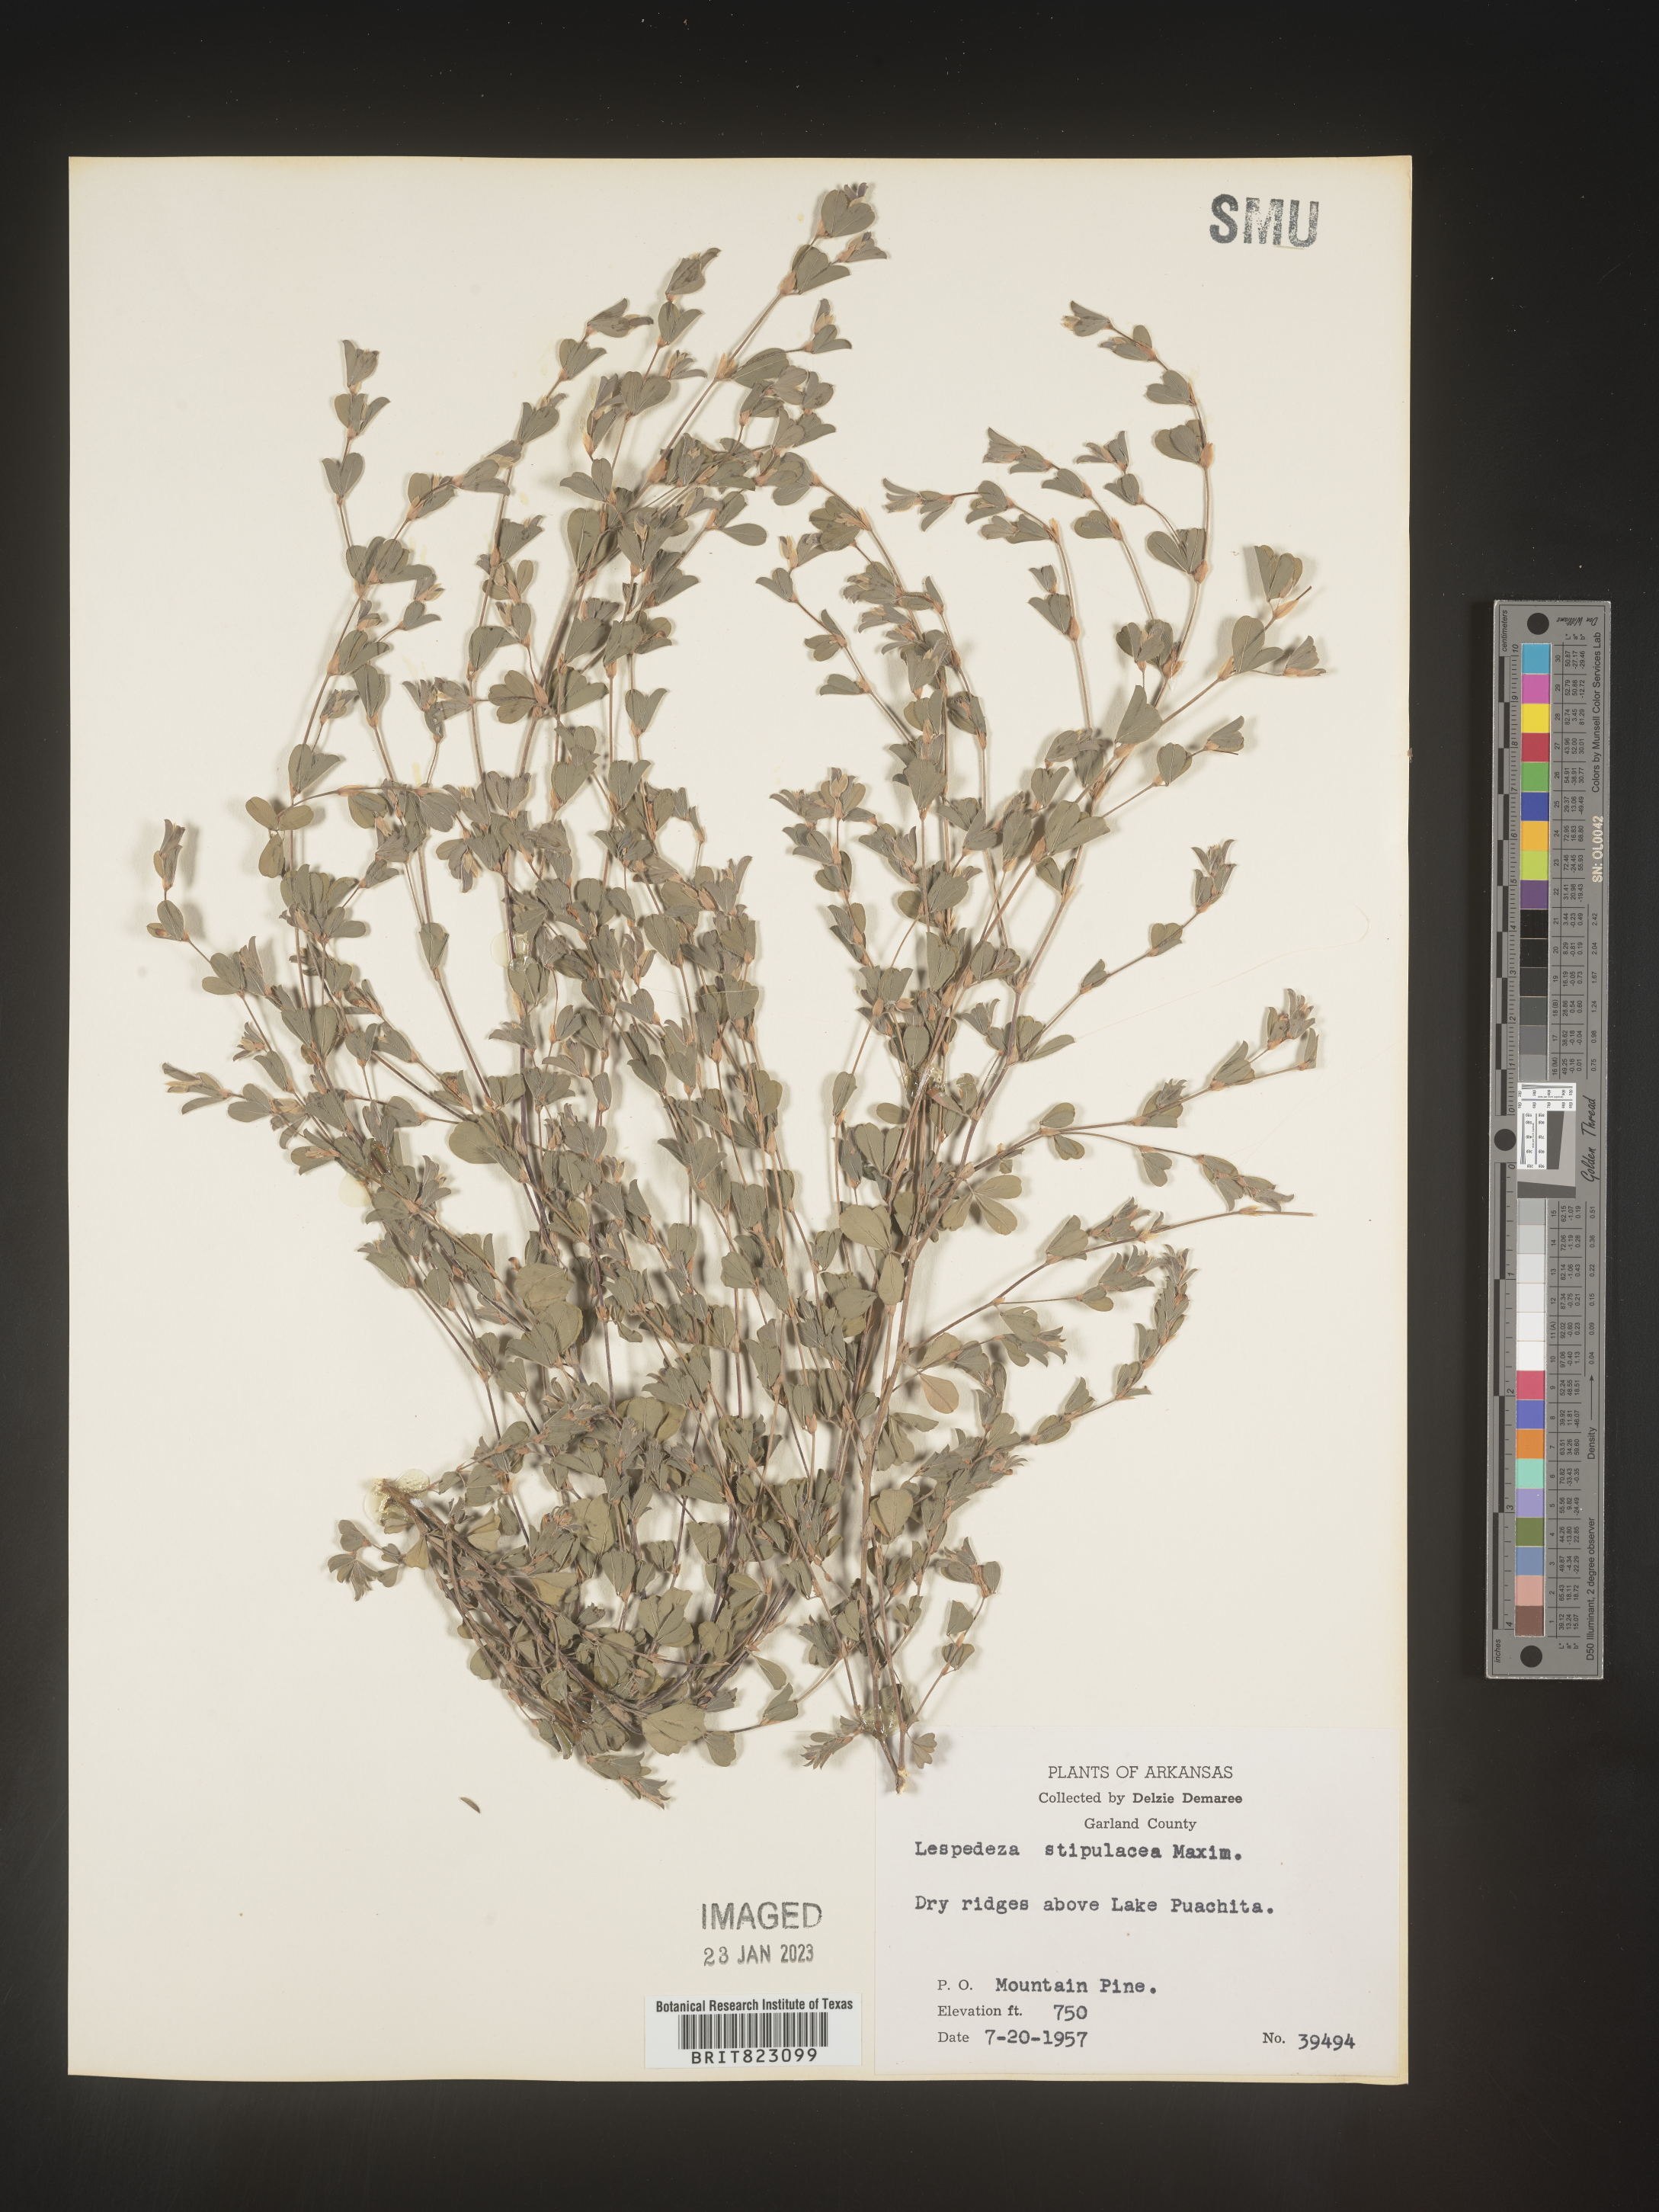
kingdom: Plantae
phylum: Tracheophyta
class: Magnoliopsida
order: Fabales
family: Fabaceae
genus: Lespedeza
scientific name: Lespedeza
